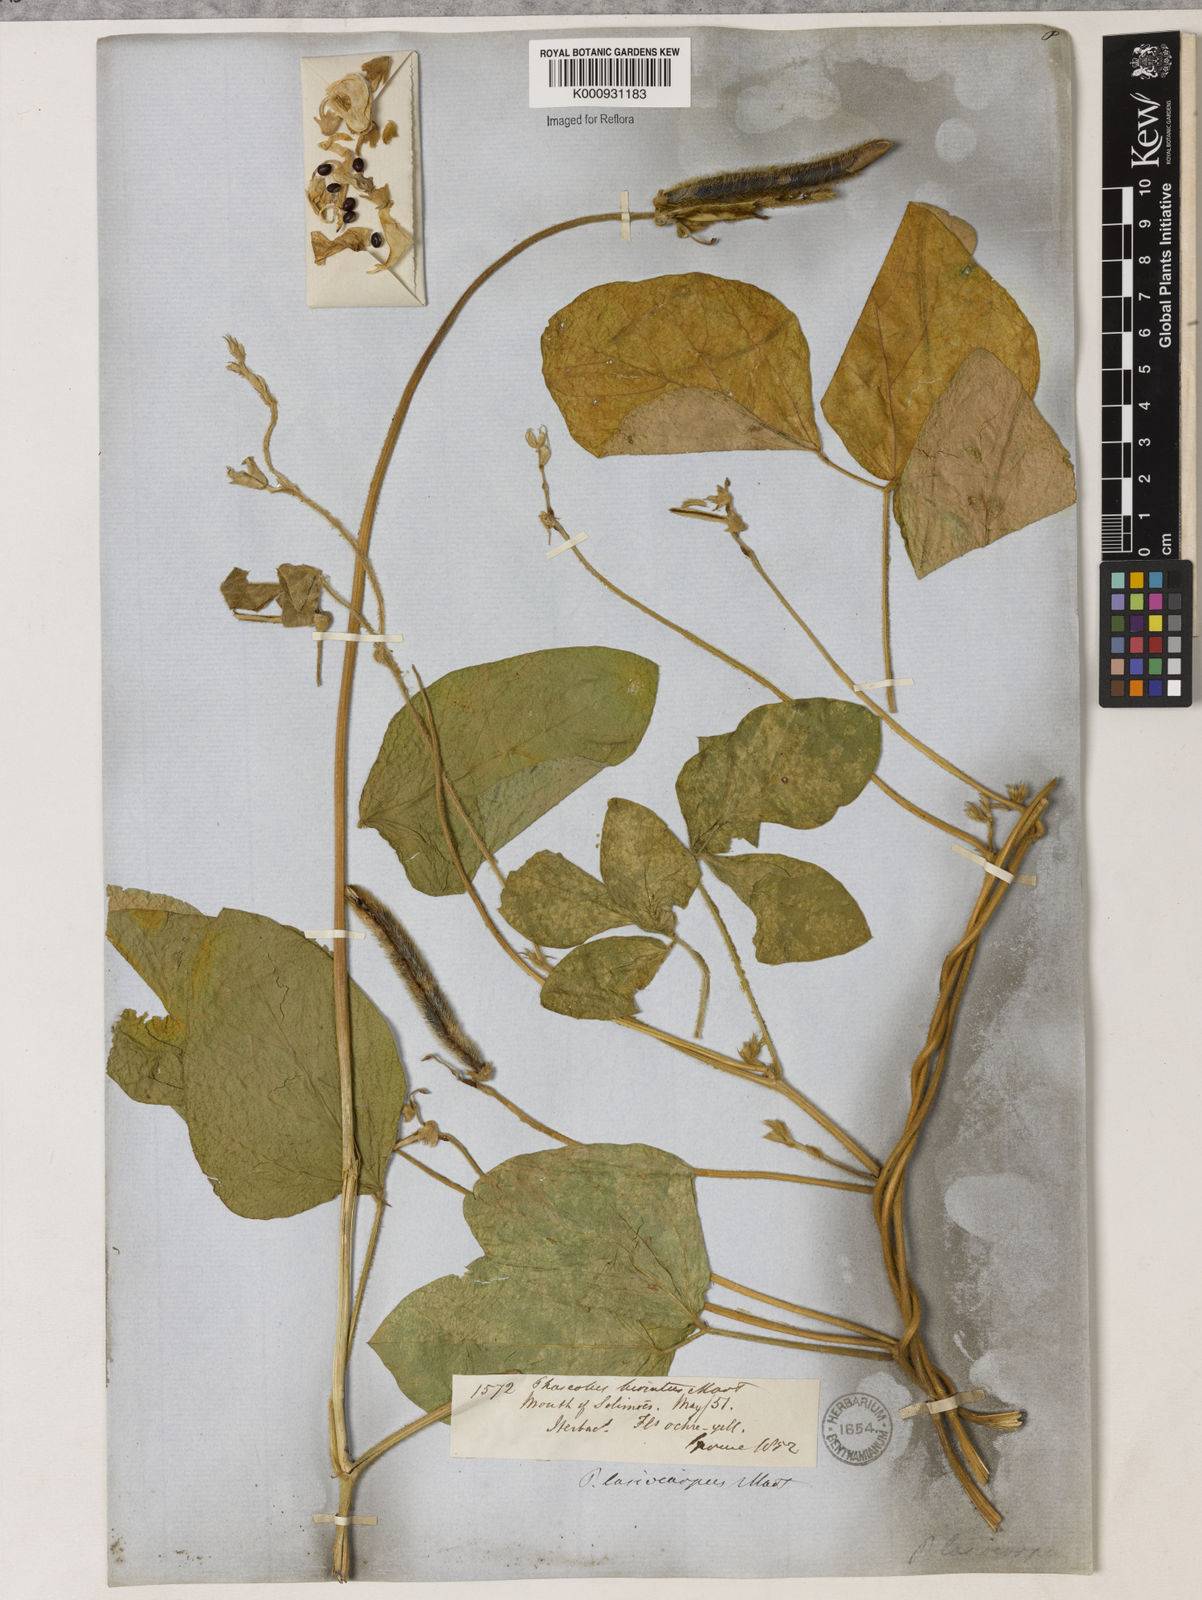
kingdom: Plantae
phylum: Tracheophyta
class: Magnoliopsida
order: Fabales
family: Fabaceae
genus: Vigna
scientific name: Vigna lasiocarpa
